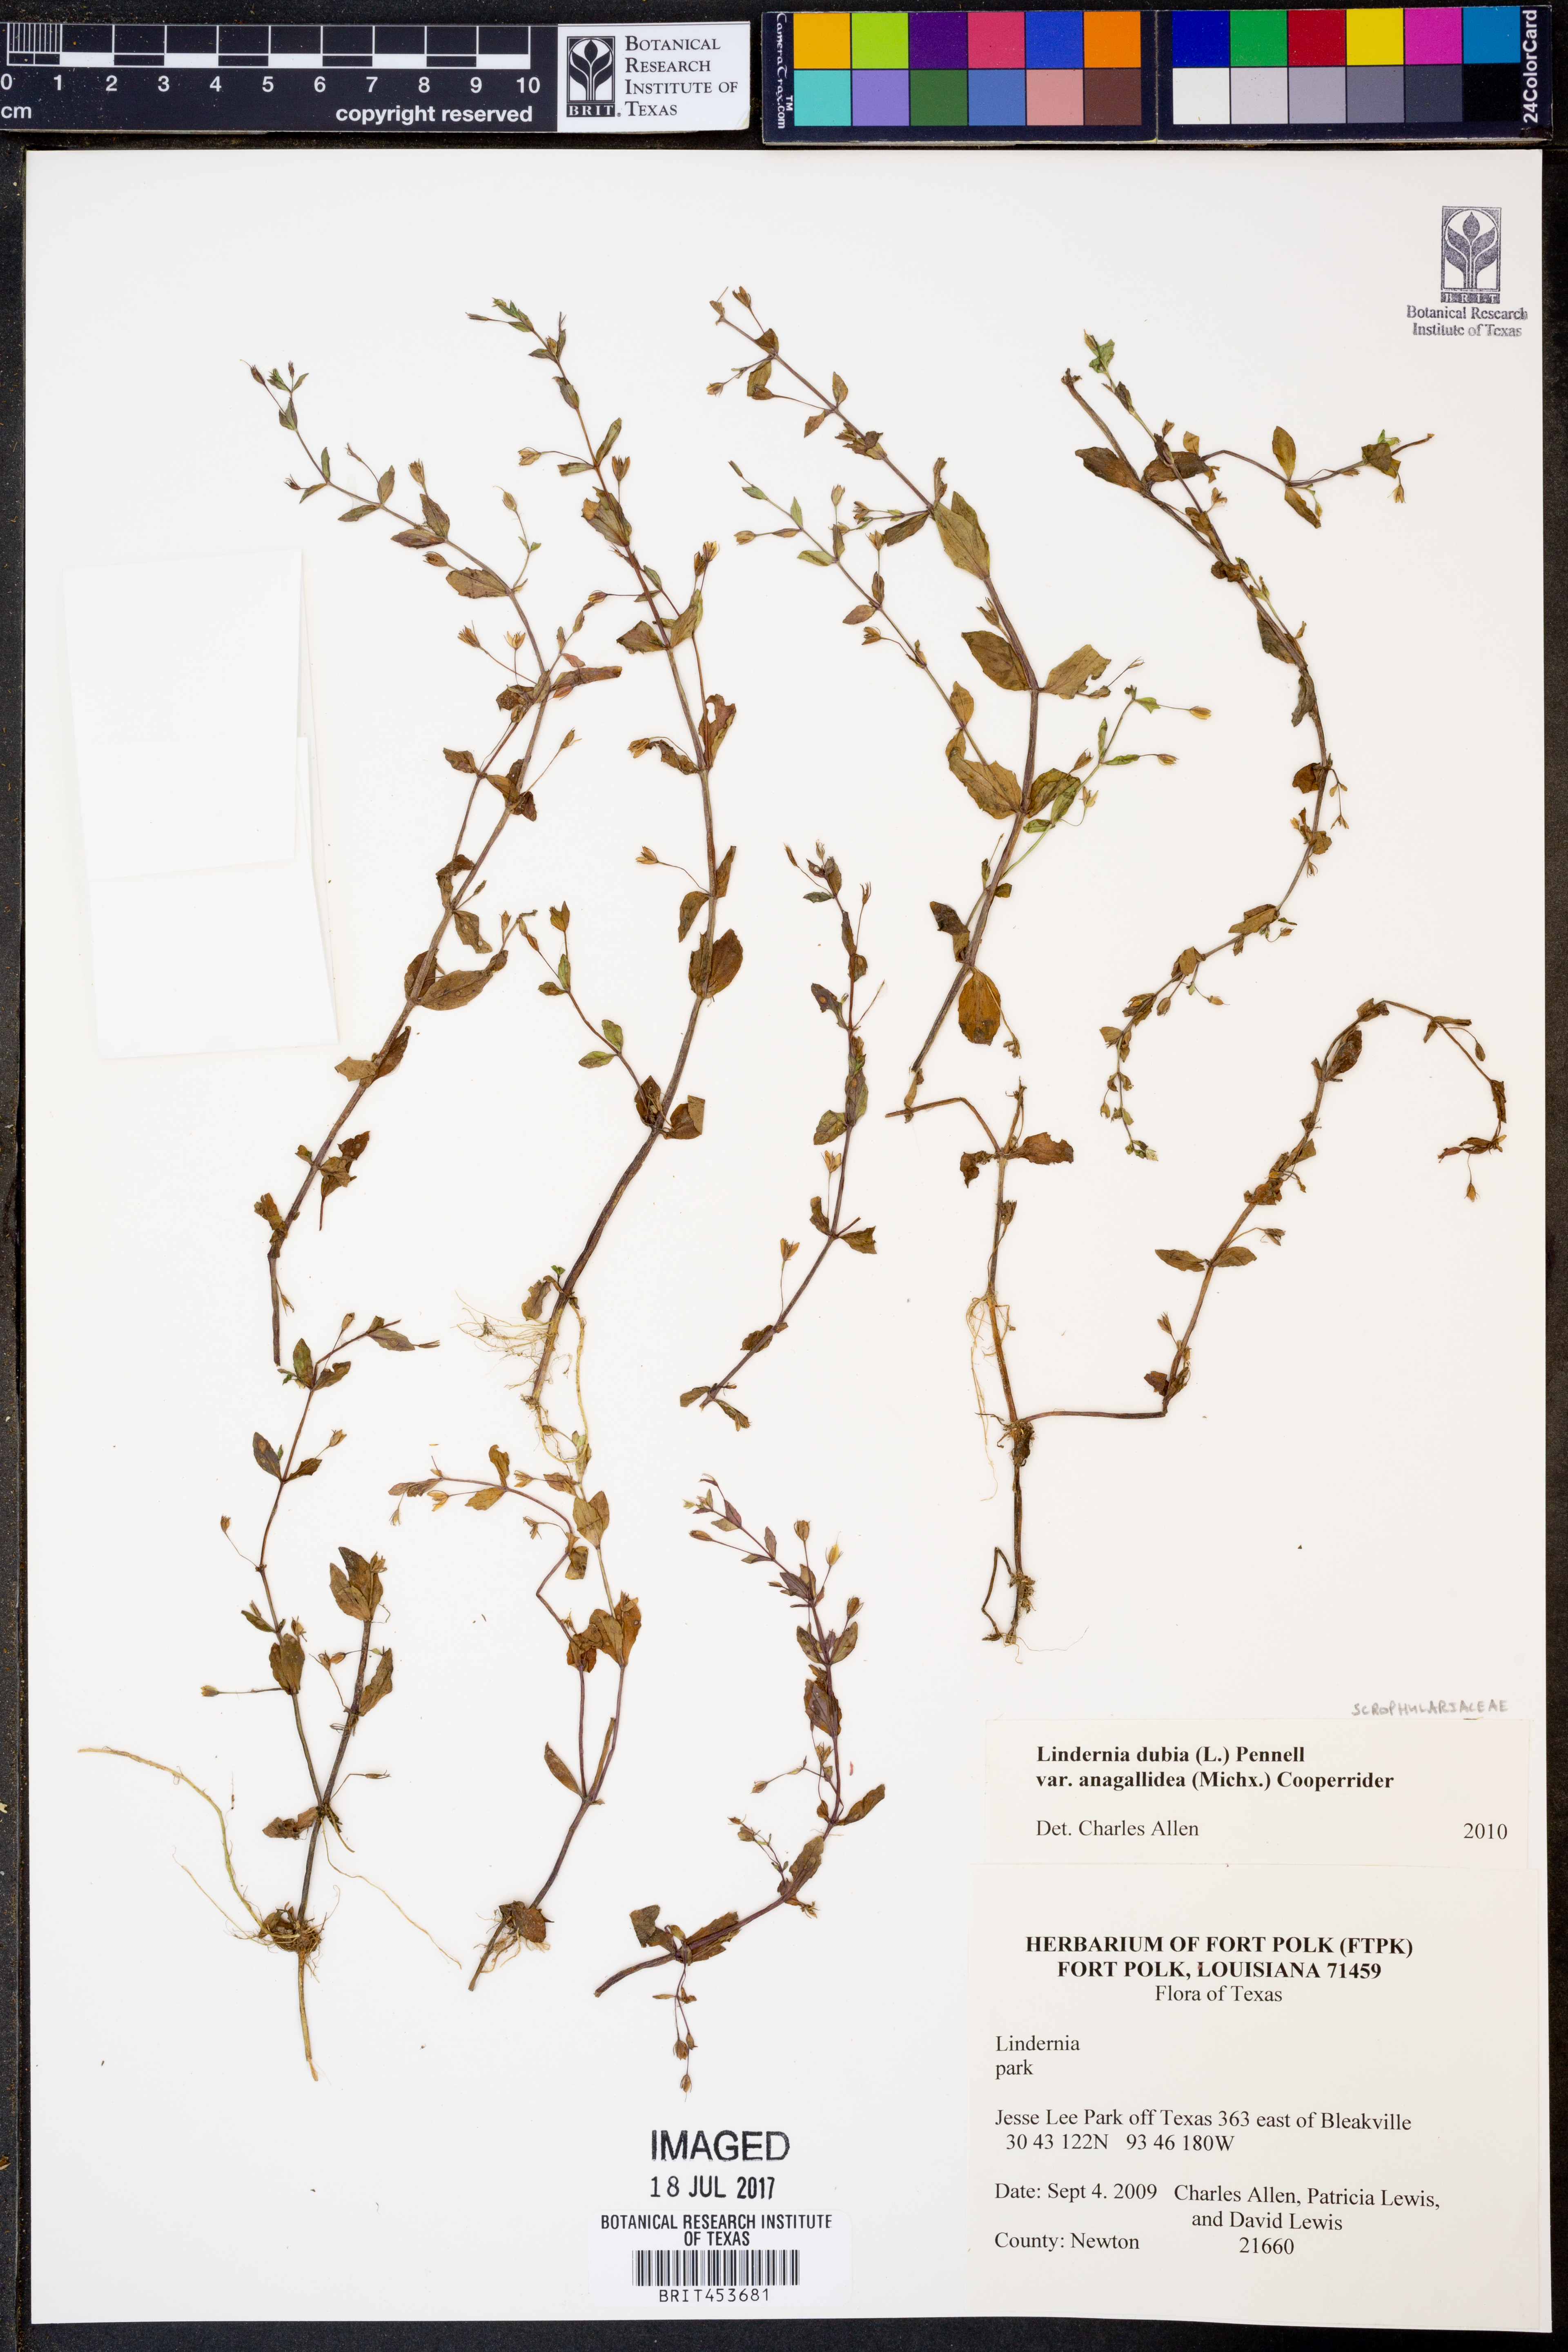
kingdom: Plantae
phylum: Tracheophyta
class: Magnoliopsida
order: Lamiales
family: Linderniaceae
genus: Lindernia
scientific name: Lindernia dubia
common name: Annual false pimpernel
